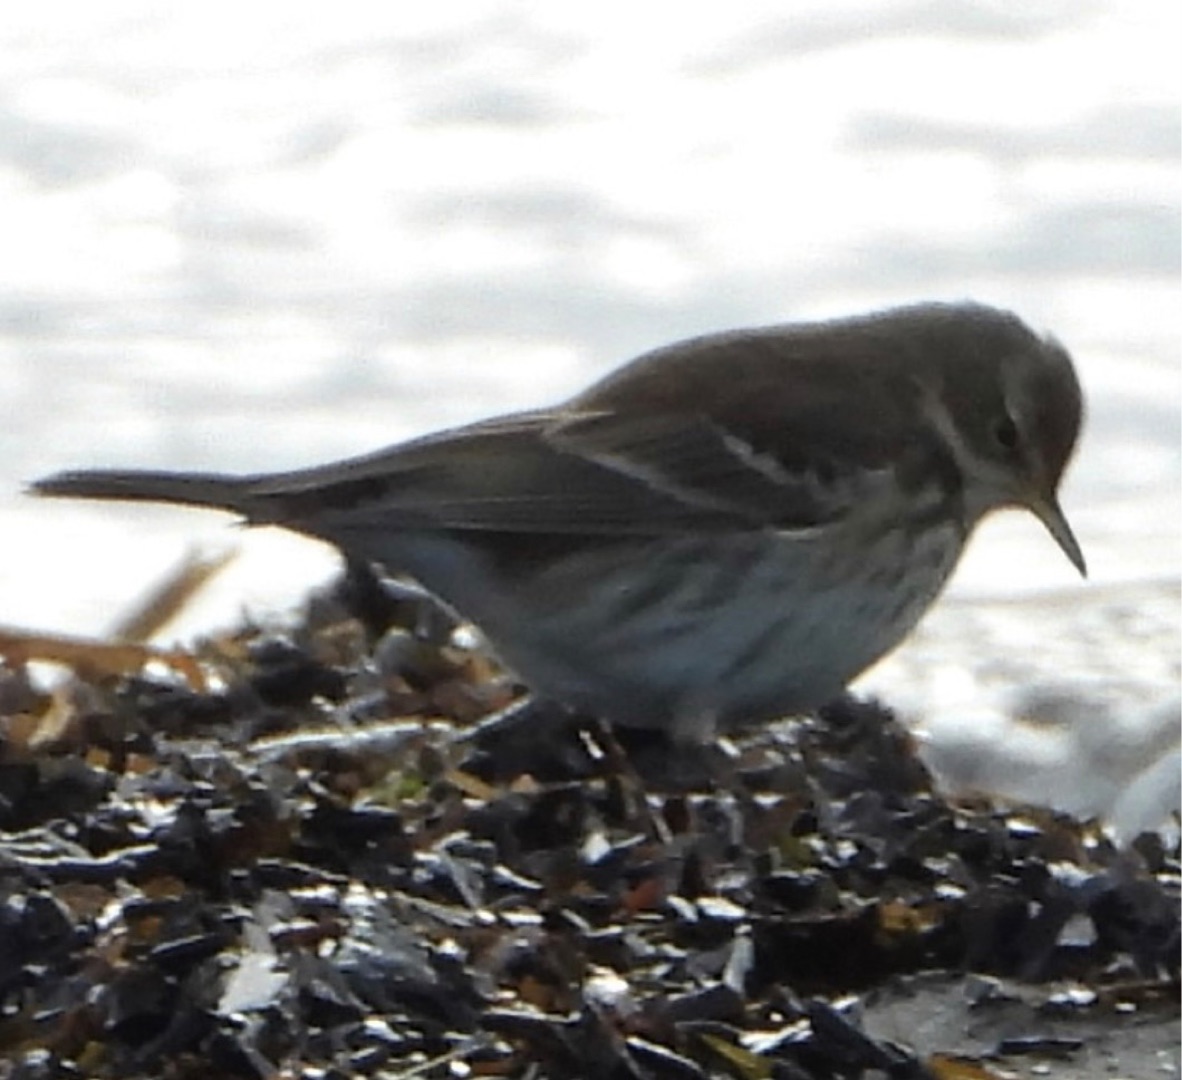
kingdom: Animalia
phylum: Chordata
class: Aves
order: Passeriformes
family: Motacillidae
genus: Anthus
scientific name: Anthus spinoletta
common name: Bjergpiber
